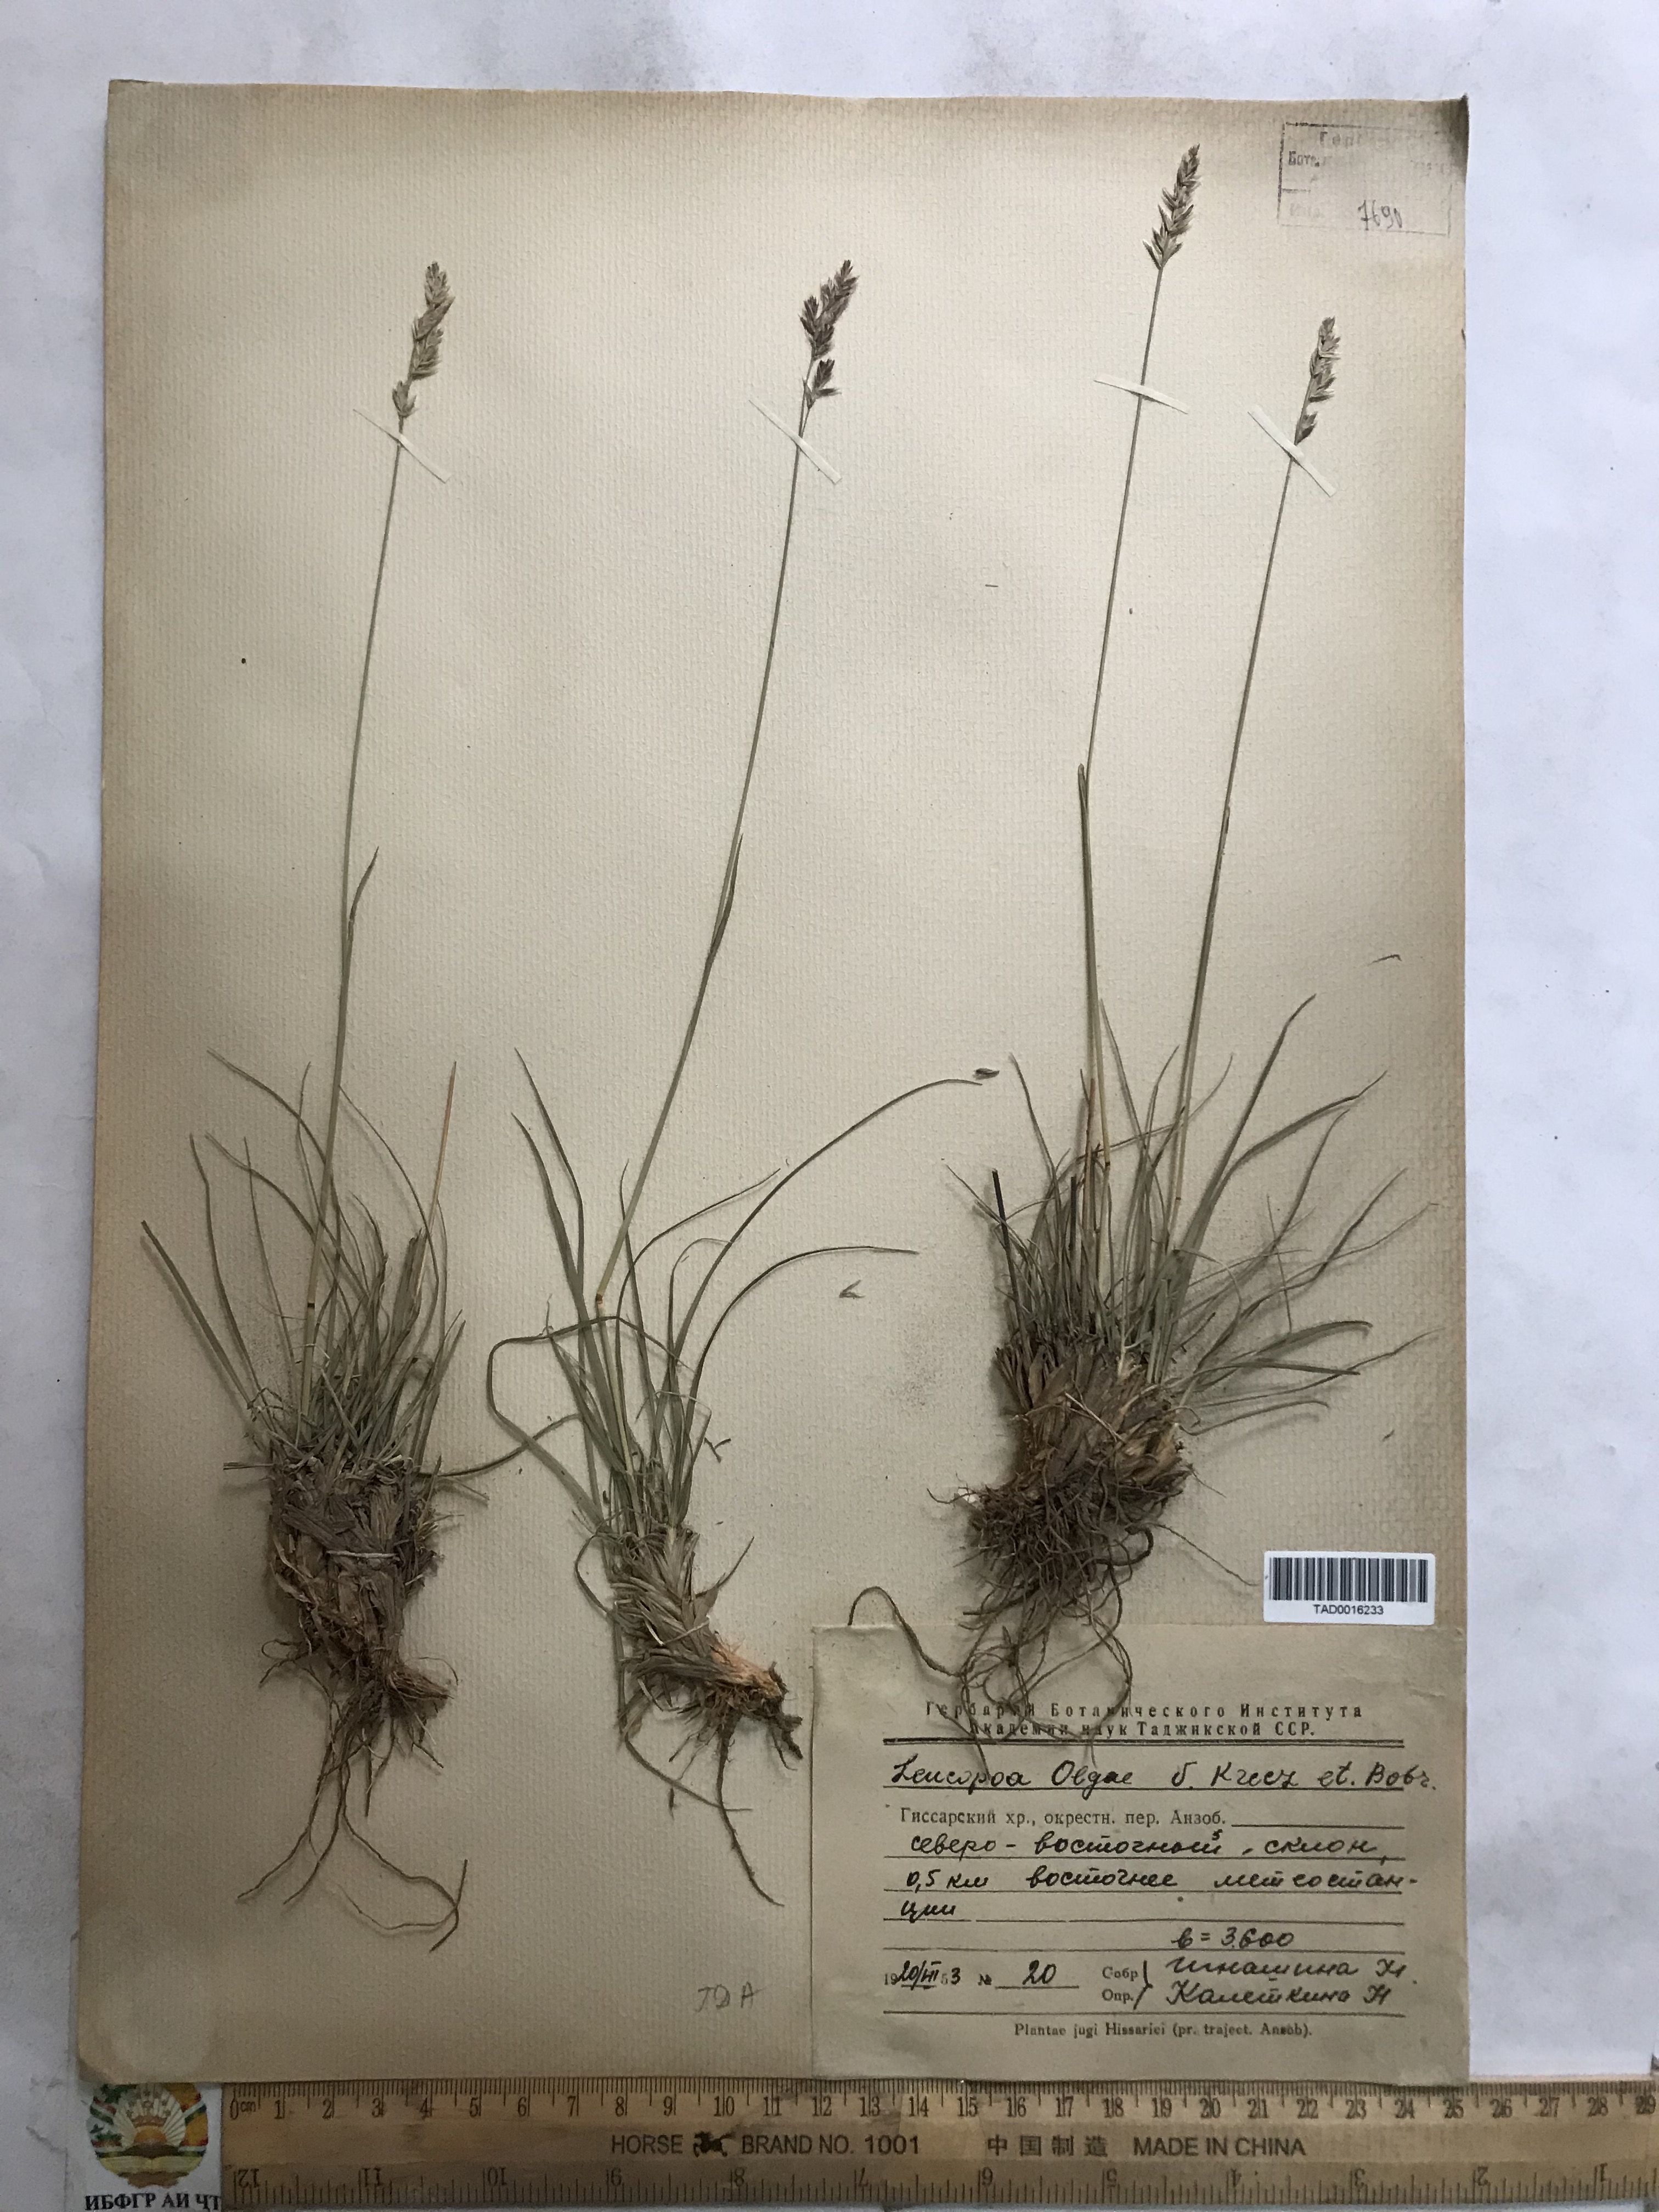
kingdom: Plantae
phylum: Tracheophyta
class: Liliopsida
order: Poales
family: Poaceae
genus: Festuca
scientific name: Festuca
